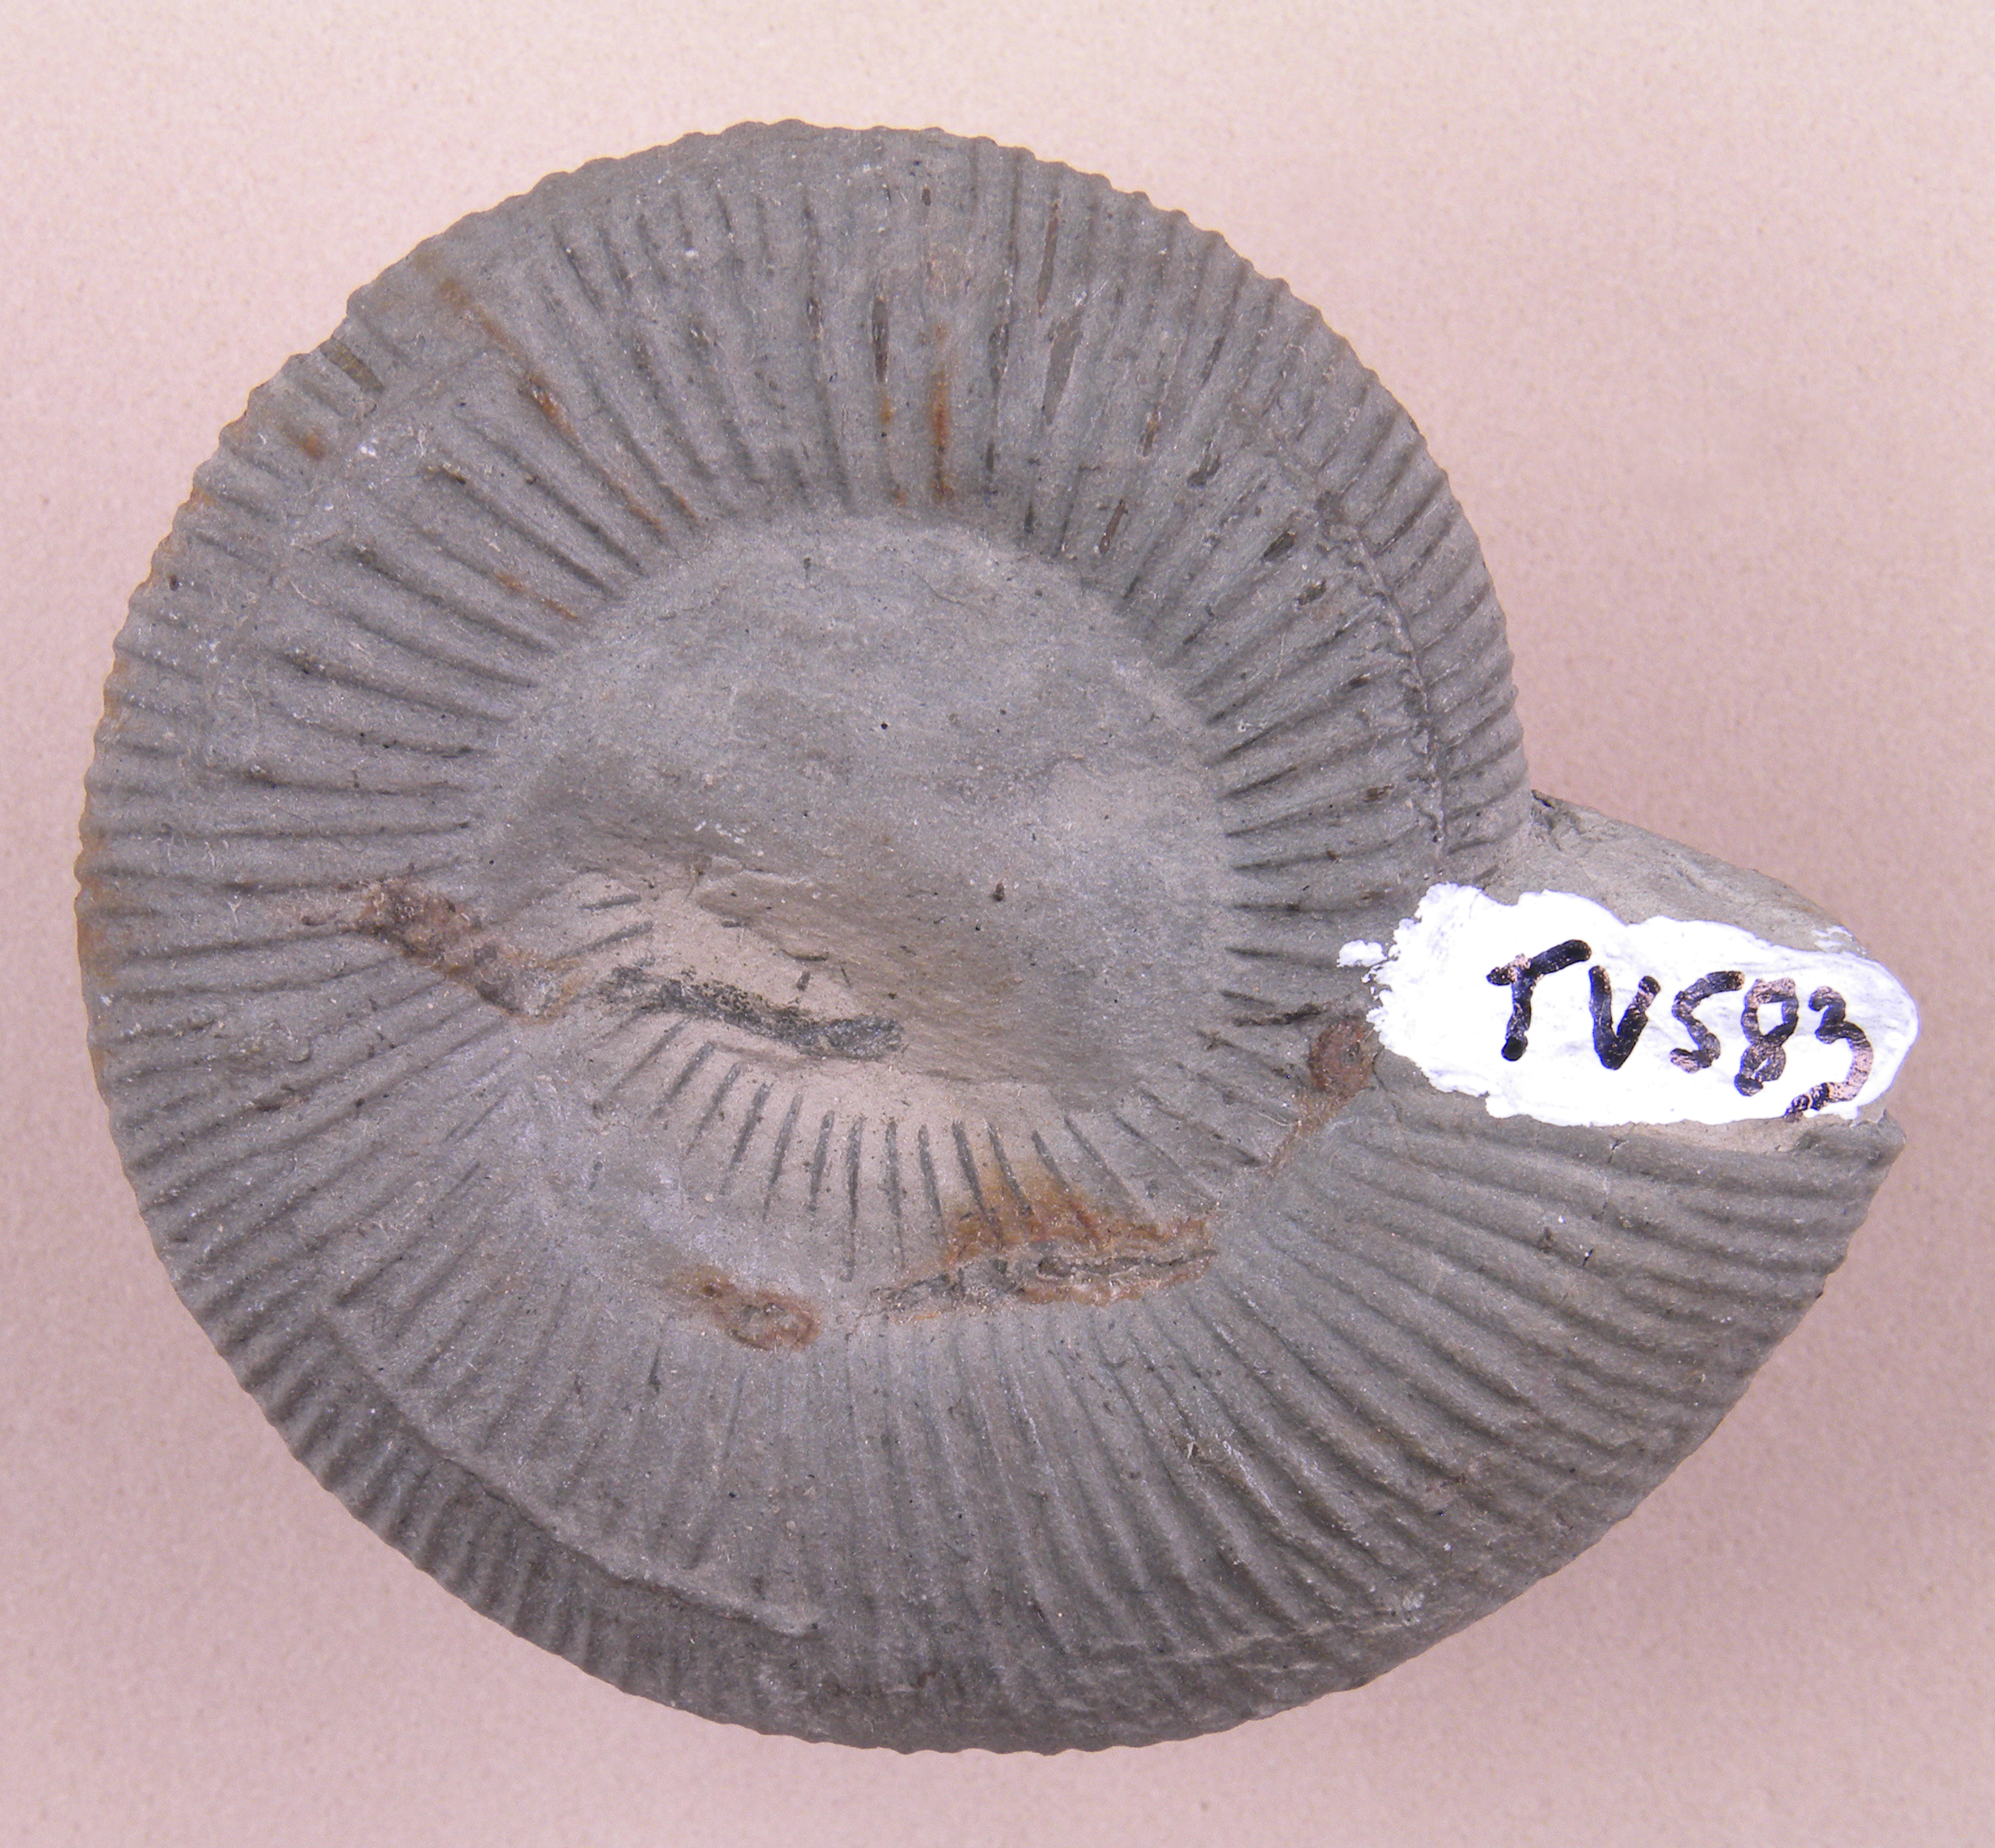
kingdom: Animalia
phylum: Mollusca
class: Cephalopoda
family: Dactylioceratidae
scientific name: Dactylioceratidae
